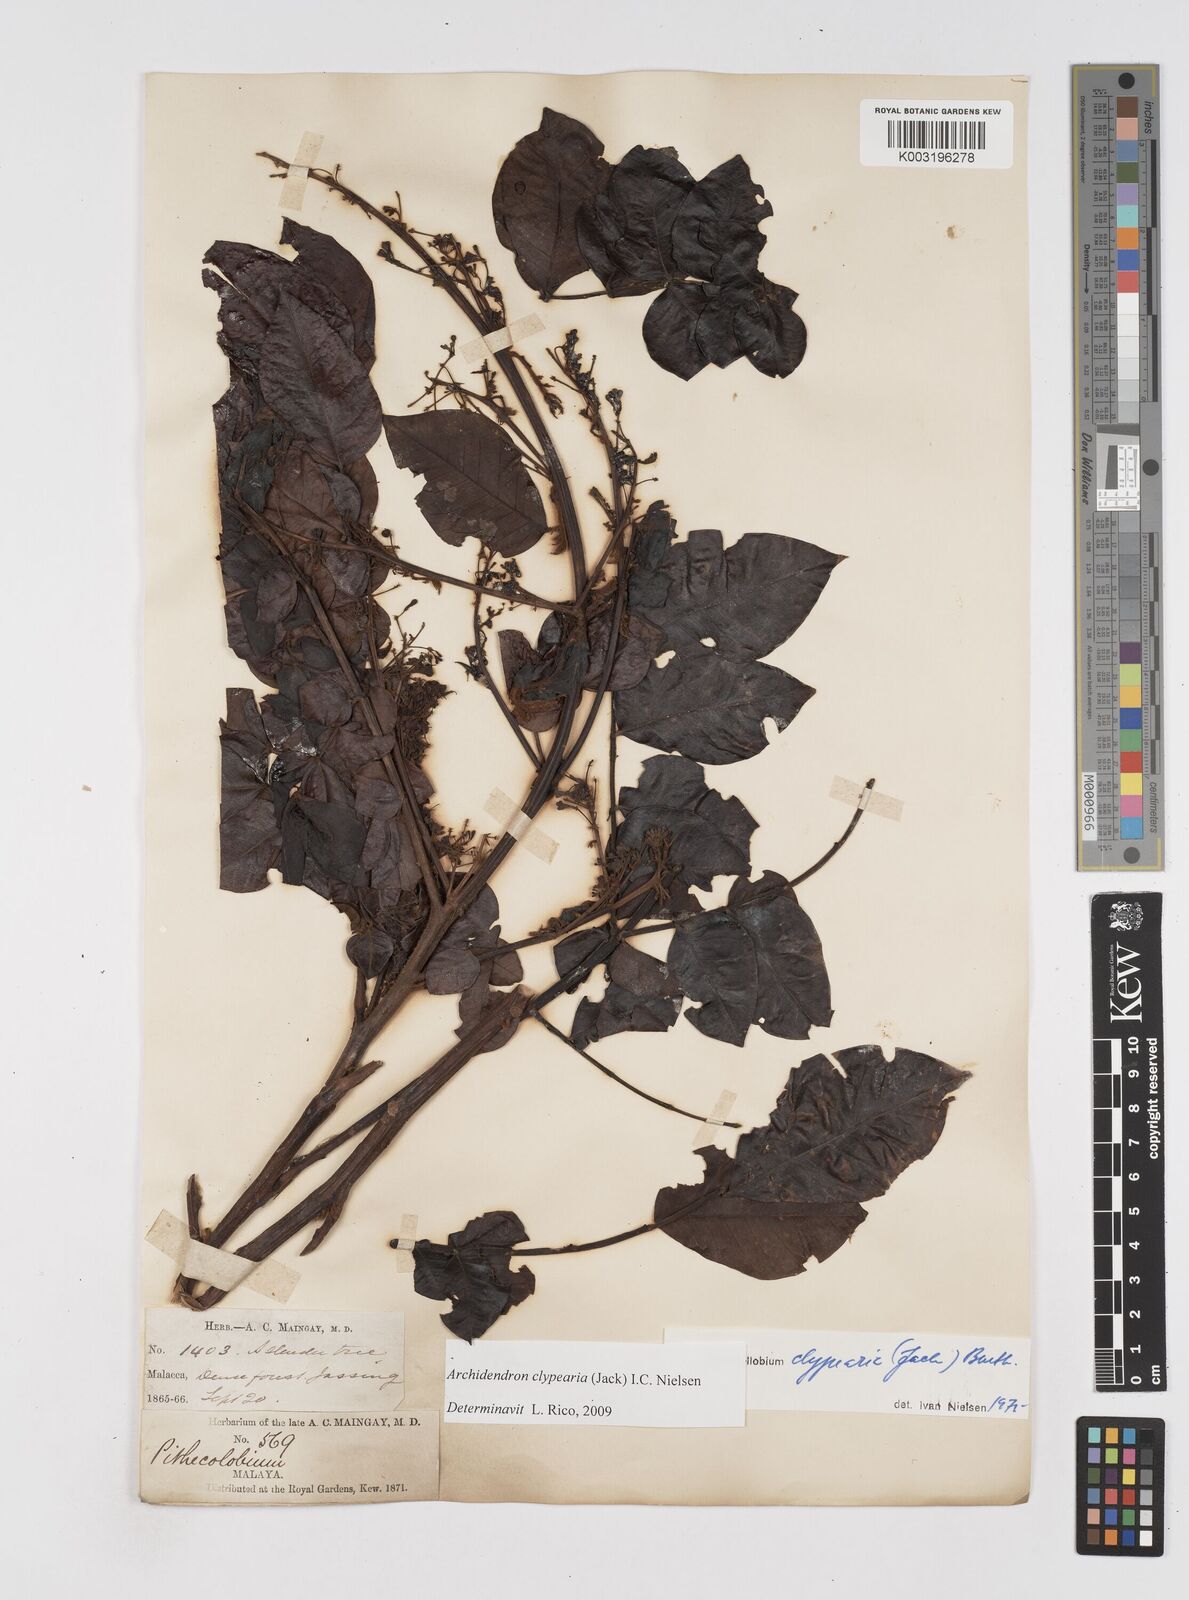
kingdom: Plantae
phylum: Tracheophyta
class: Magnoliopsida
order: Fabales
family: Fabaceae
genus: Archidendron
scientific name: Archidendron clypearia
